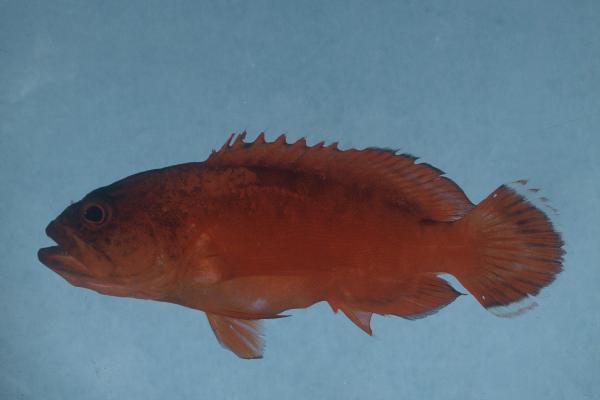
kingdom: Animalia
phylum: Chordata
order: Perciformes
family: Serranidae
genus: Cephalopholis
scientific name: Cephalopholis spiloparaea
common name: Strawberry grouper
